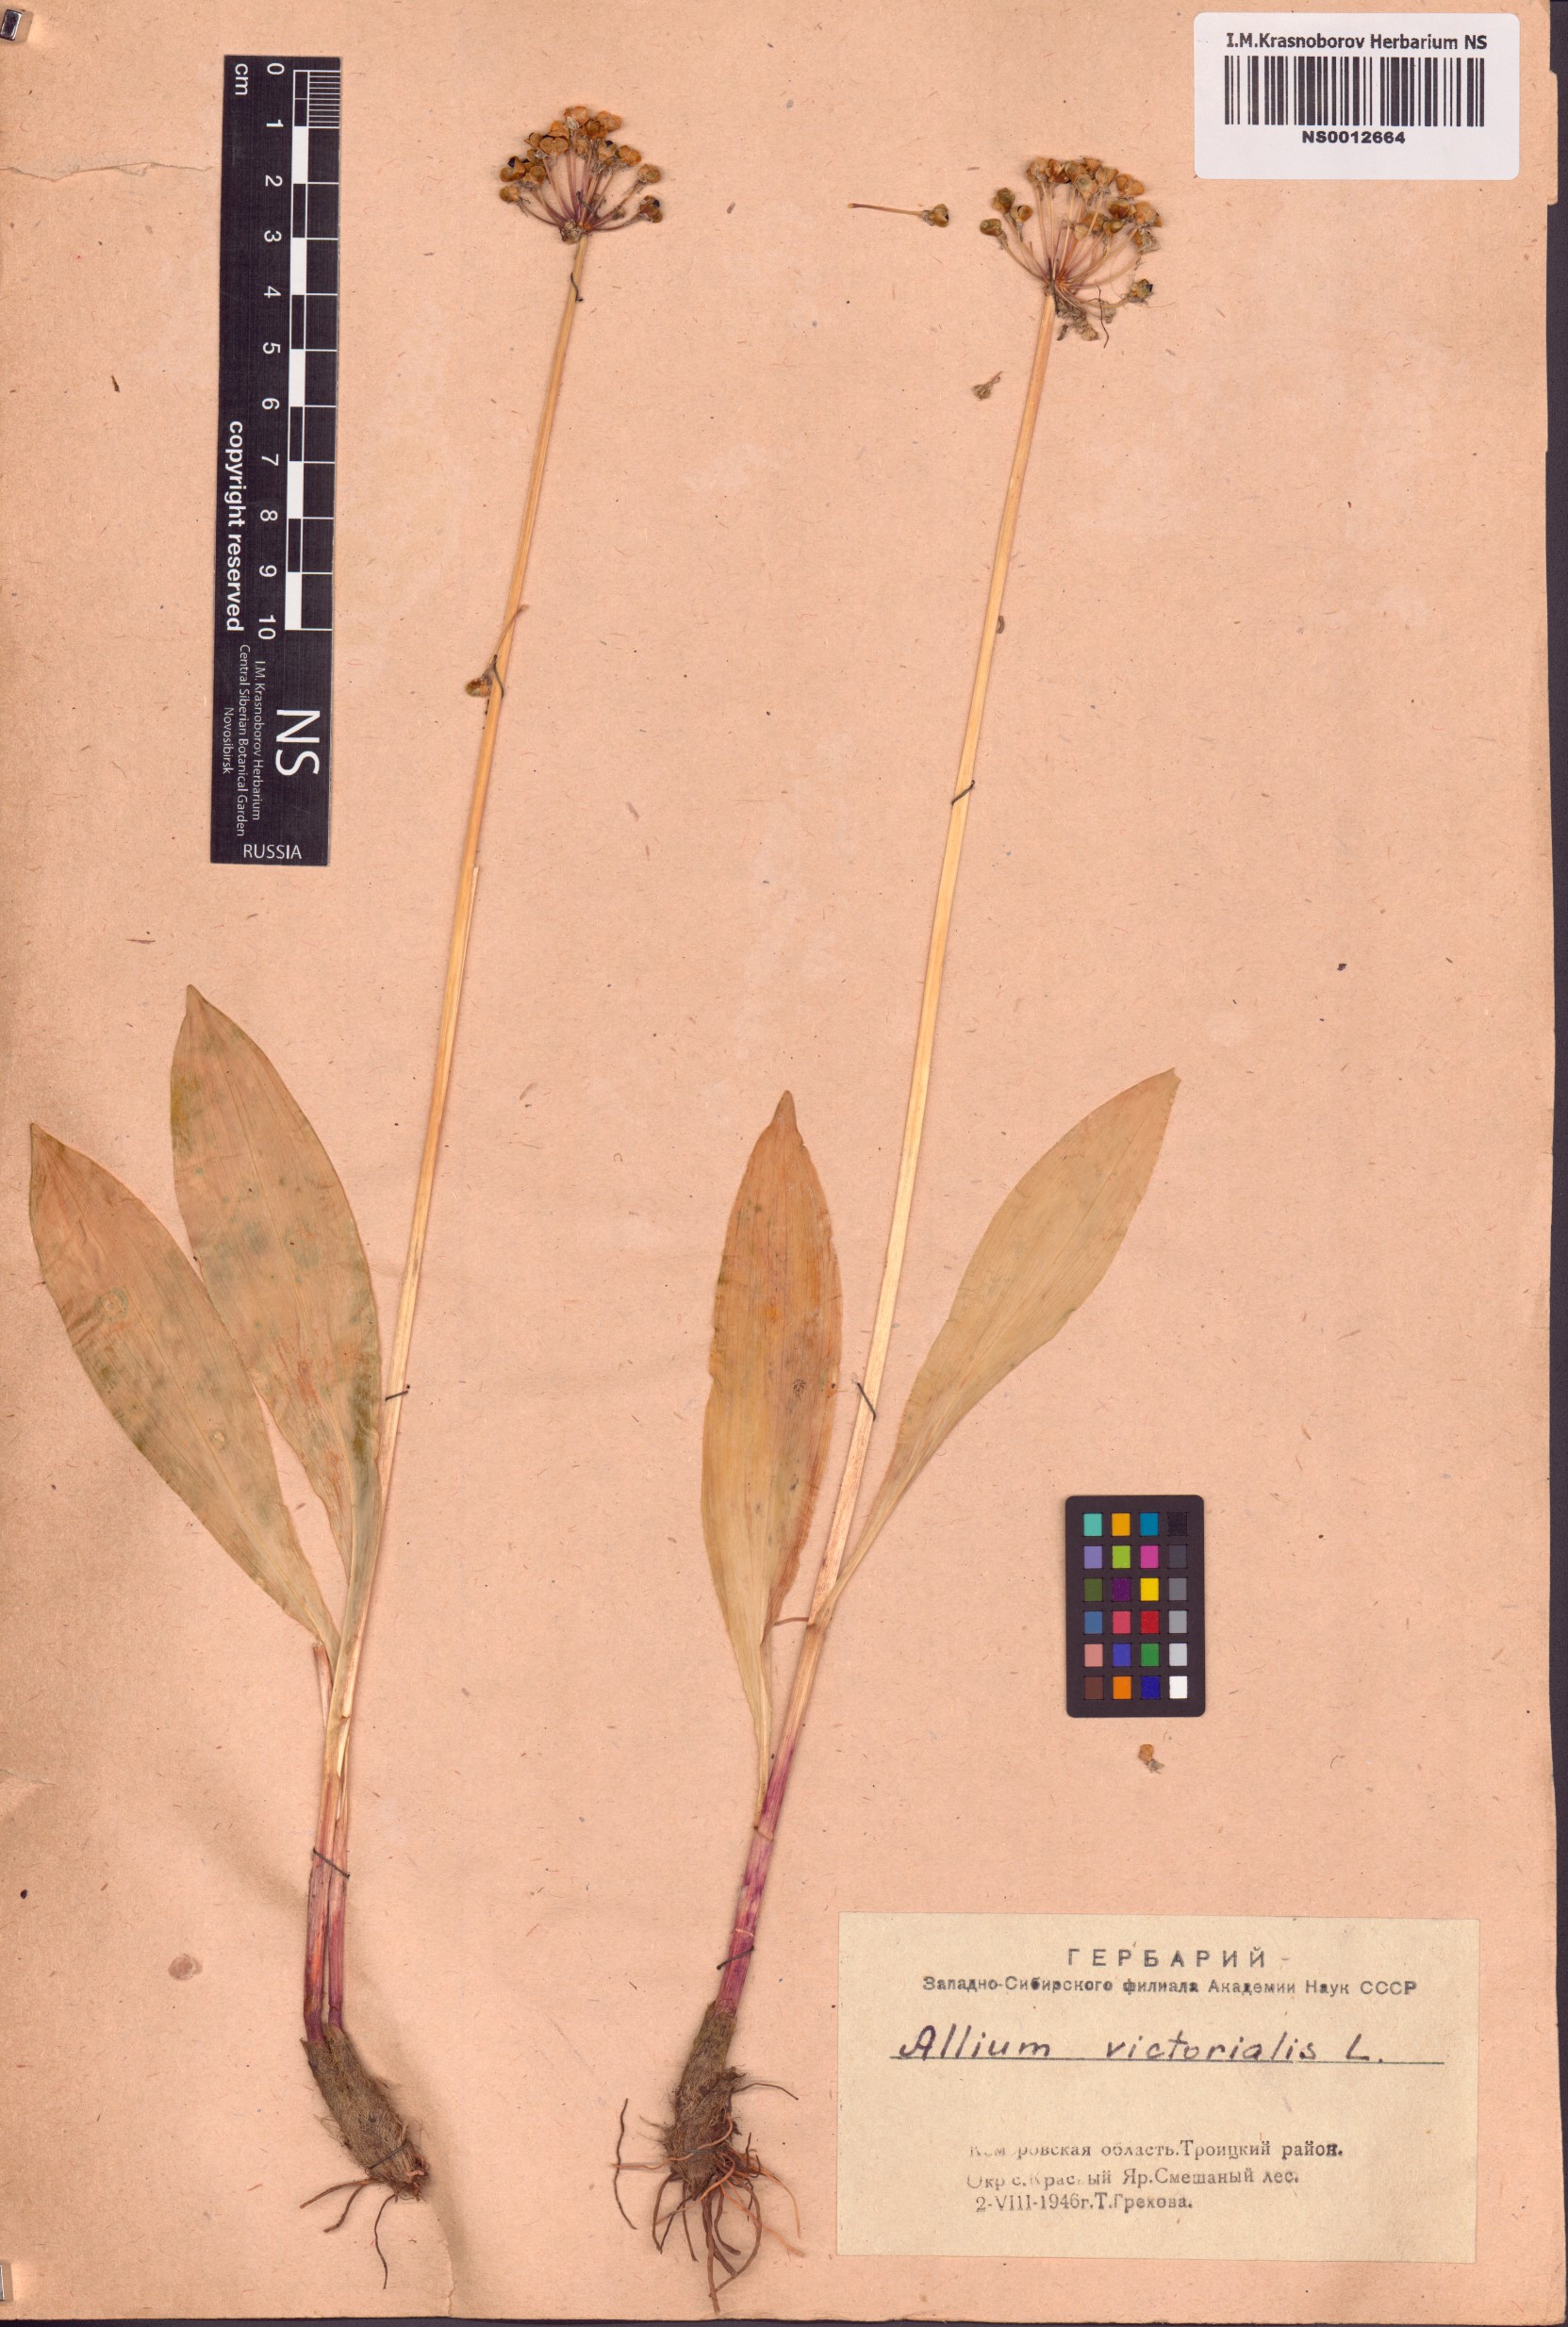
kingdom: Plantae
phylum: Tracheophyta
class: Liliopsida
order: Asparagales
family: Amaryllidaceae
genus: Allium
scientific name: Allium microdictyon
